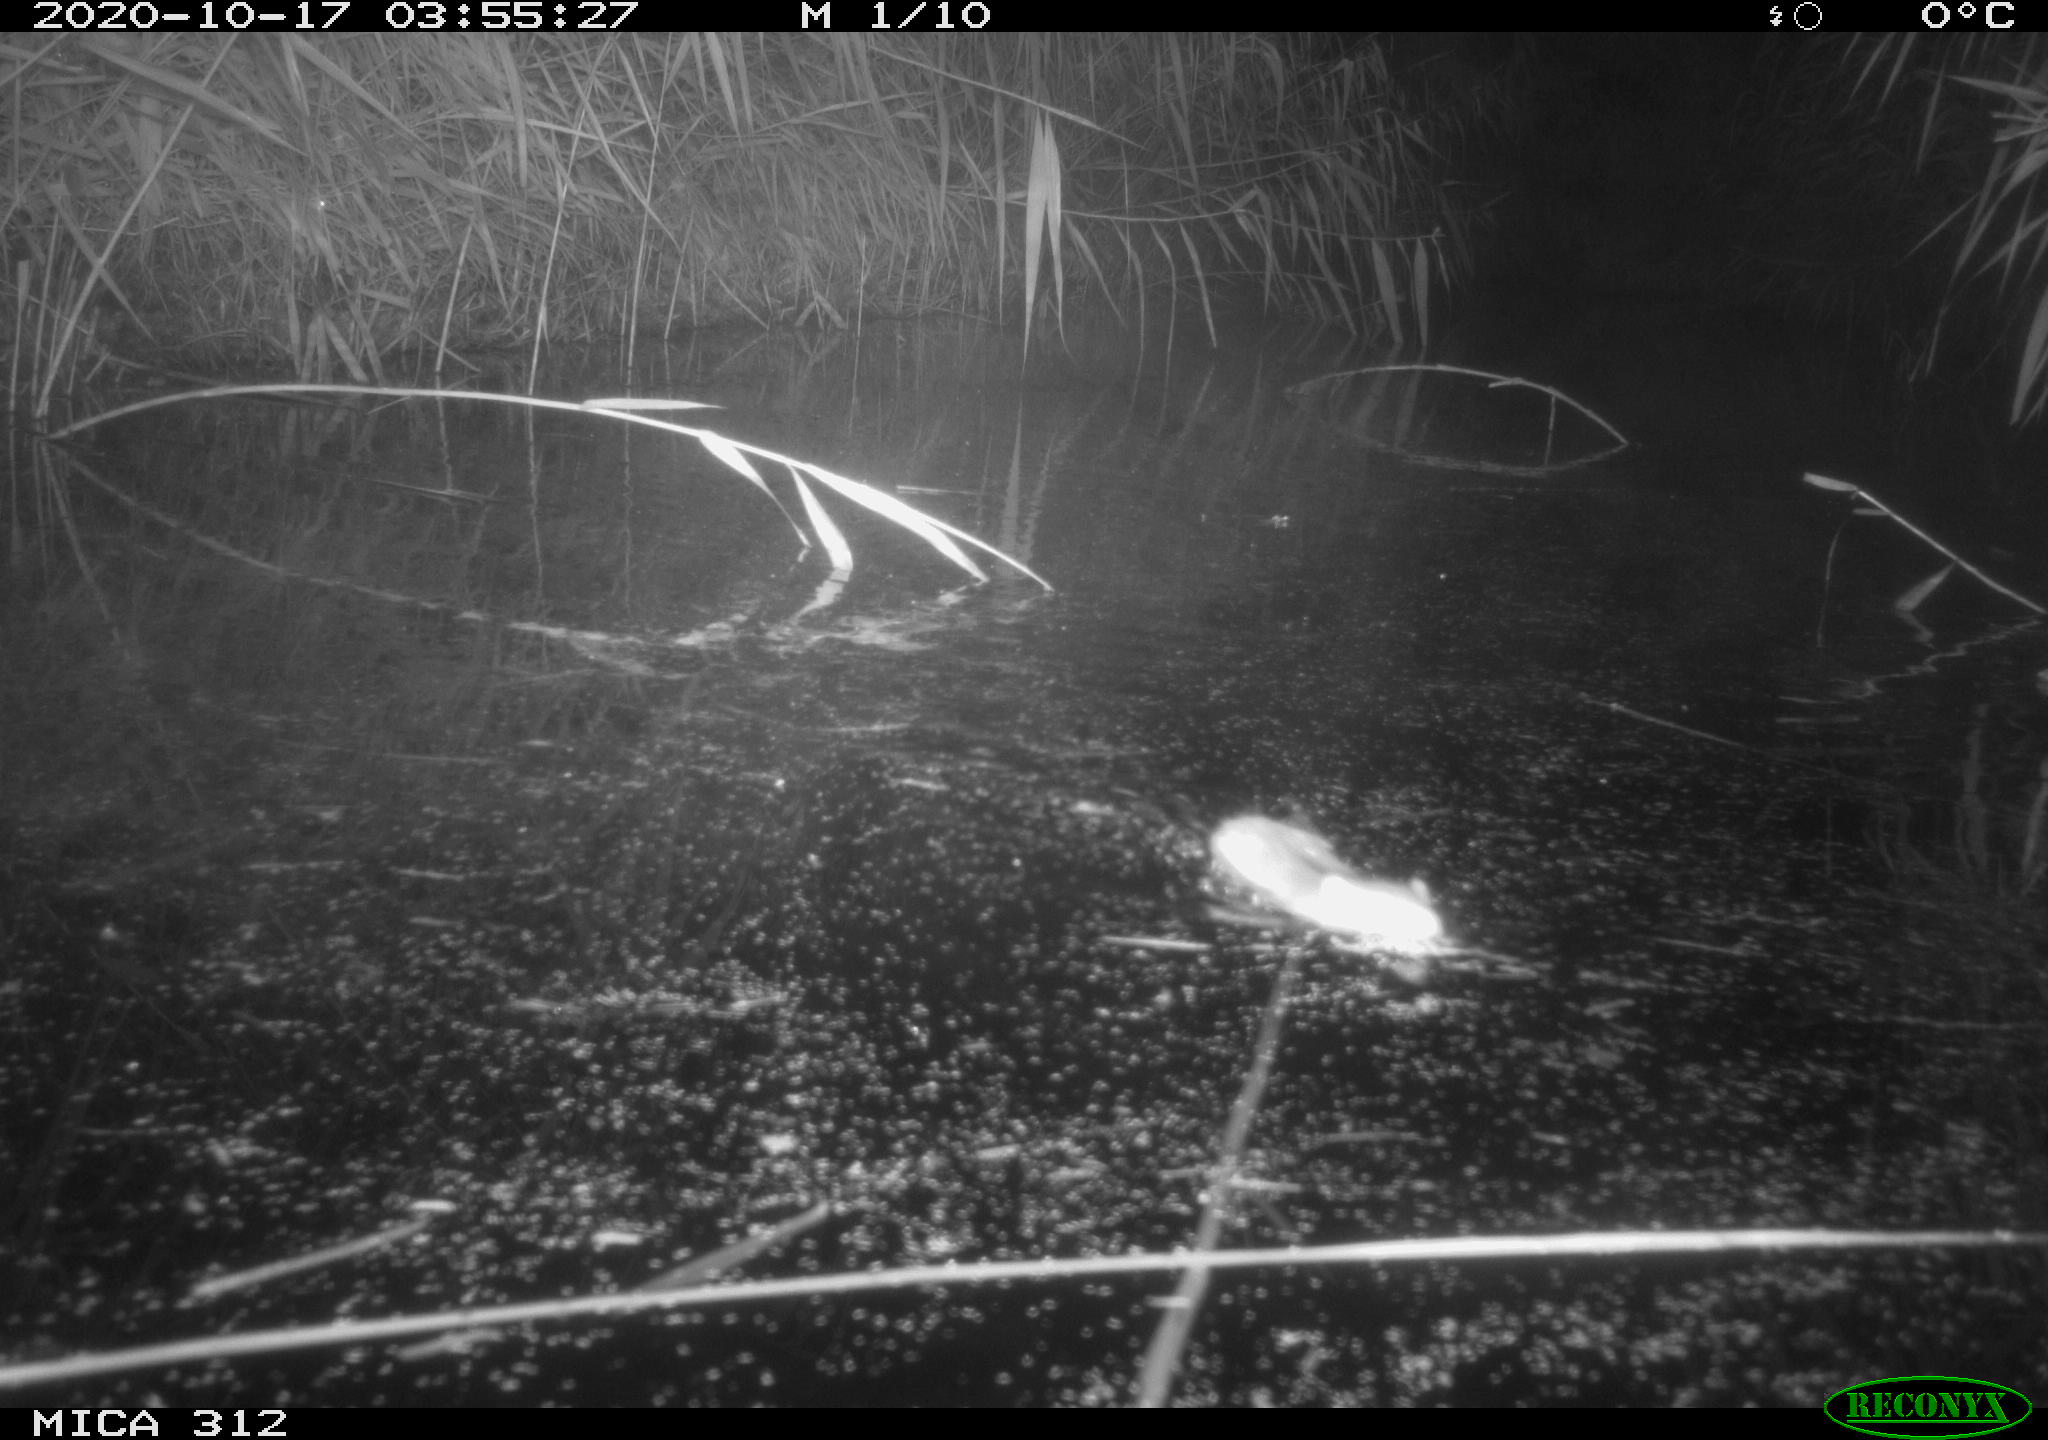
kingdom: Animalia
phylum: Chordata
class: Mammalia
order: Rodentia
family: Muridae
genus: Rattus
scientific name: Rattus norvegicus
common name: Brown rat
